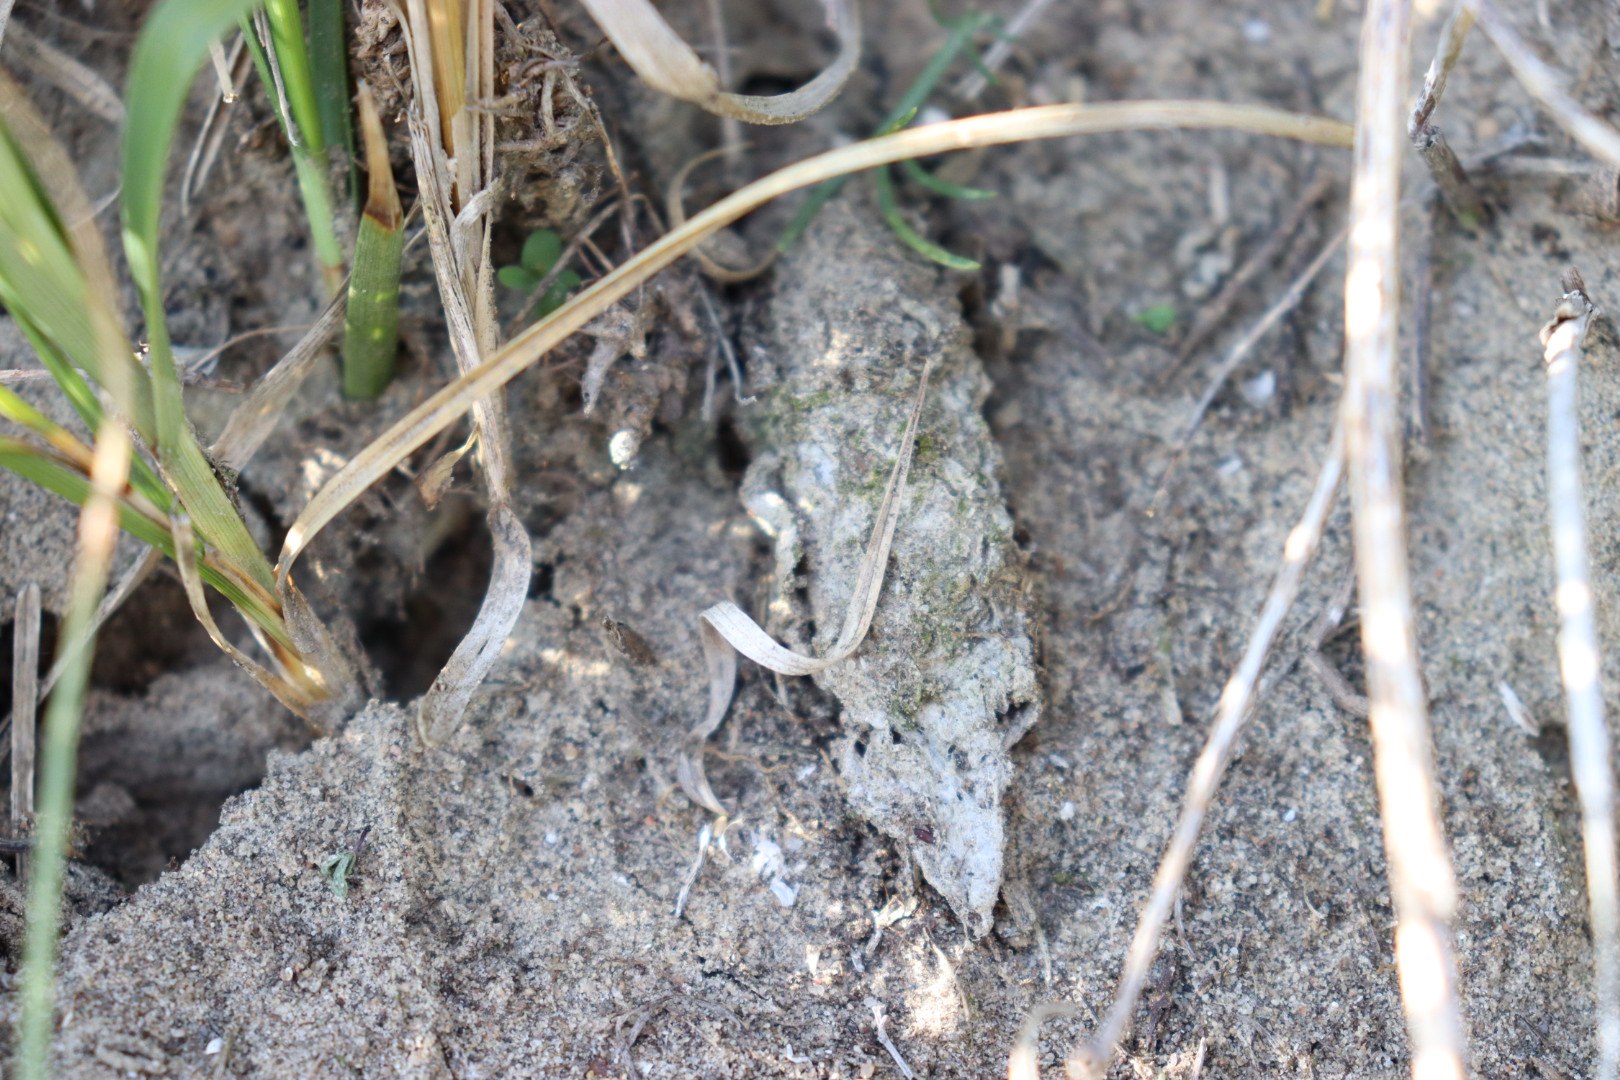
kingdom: Animalia
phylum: Arthropoda
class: Arachnida
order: Araneae
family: Atypidae
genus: Atypus
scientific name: Atypus affinis
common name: Nordlig fugleedderkop
